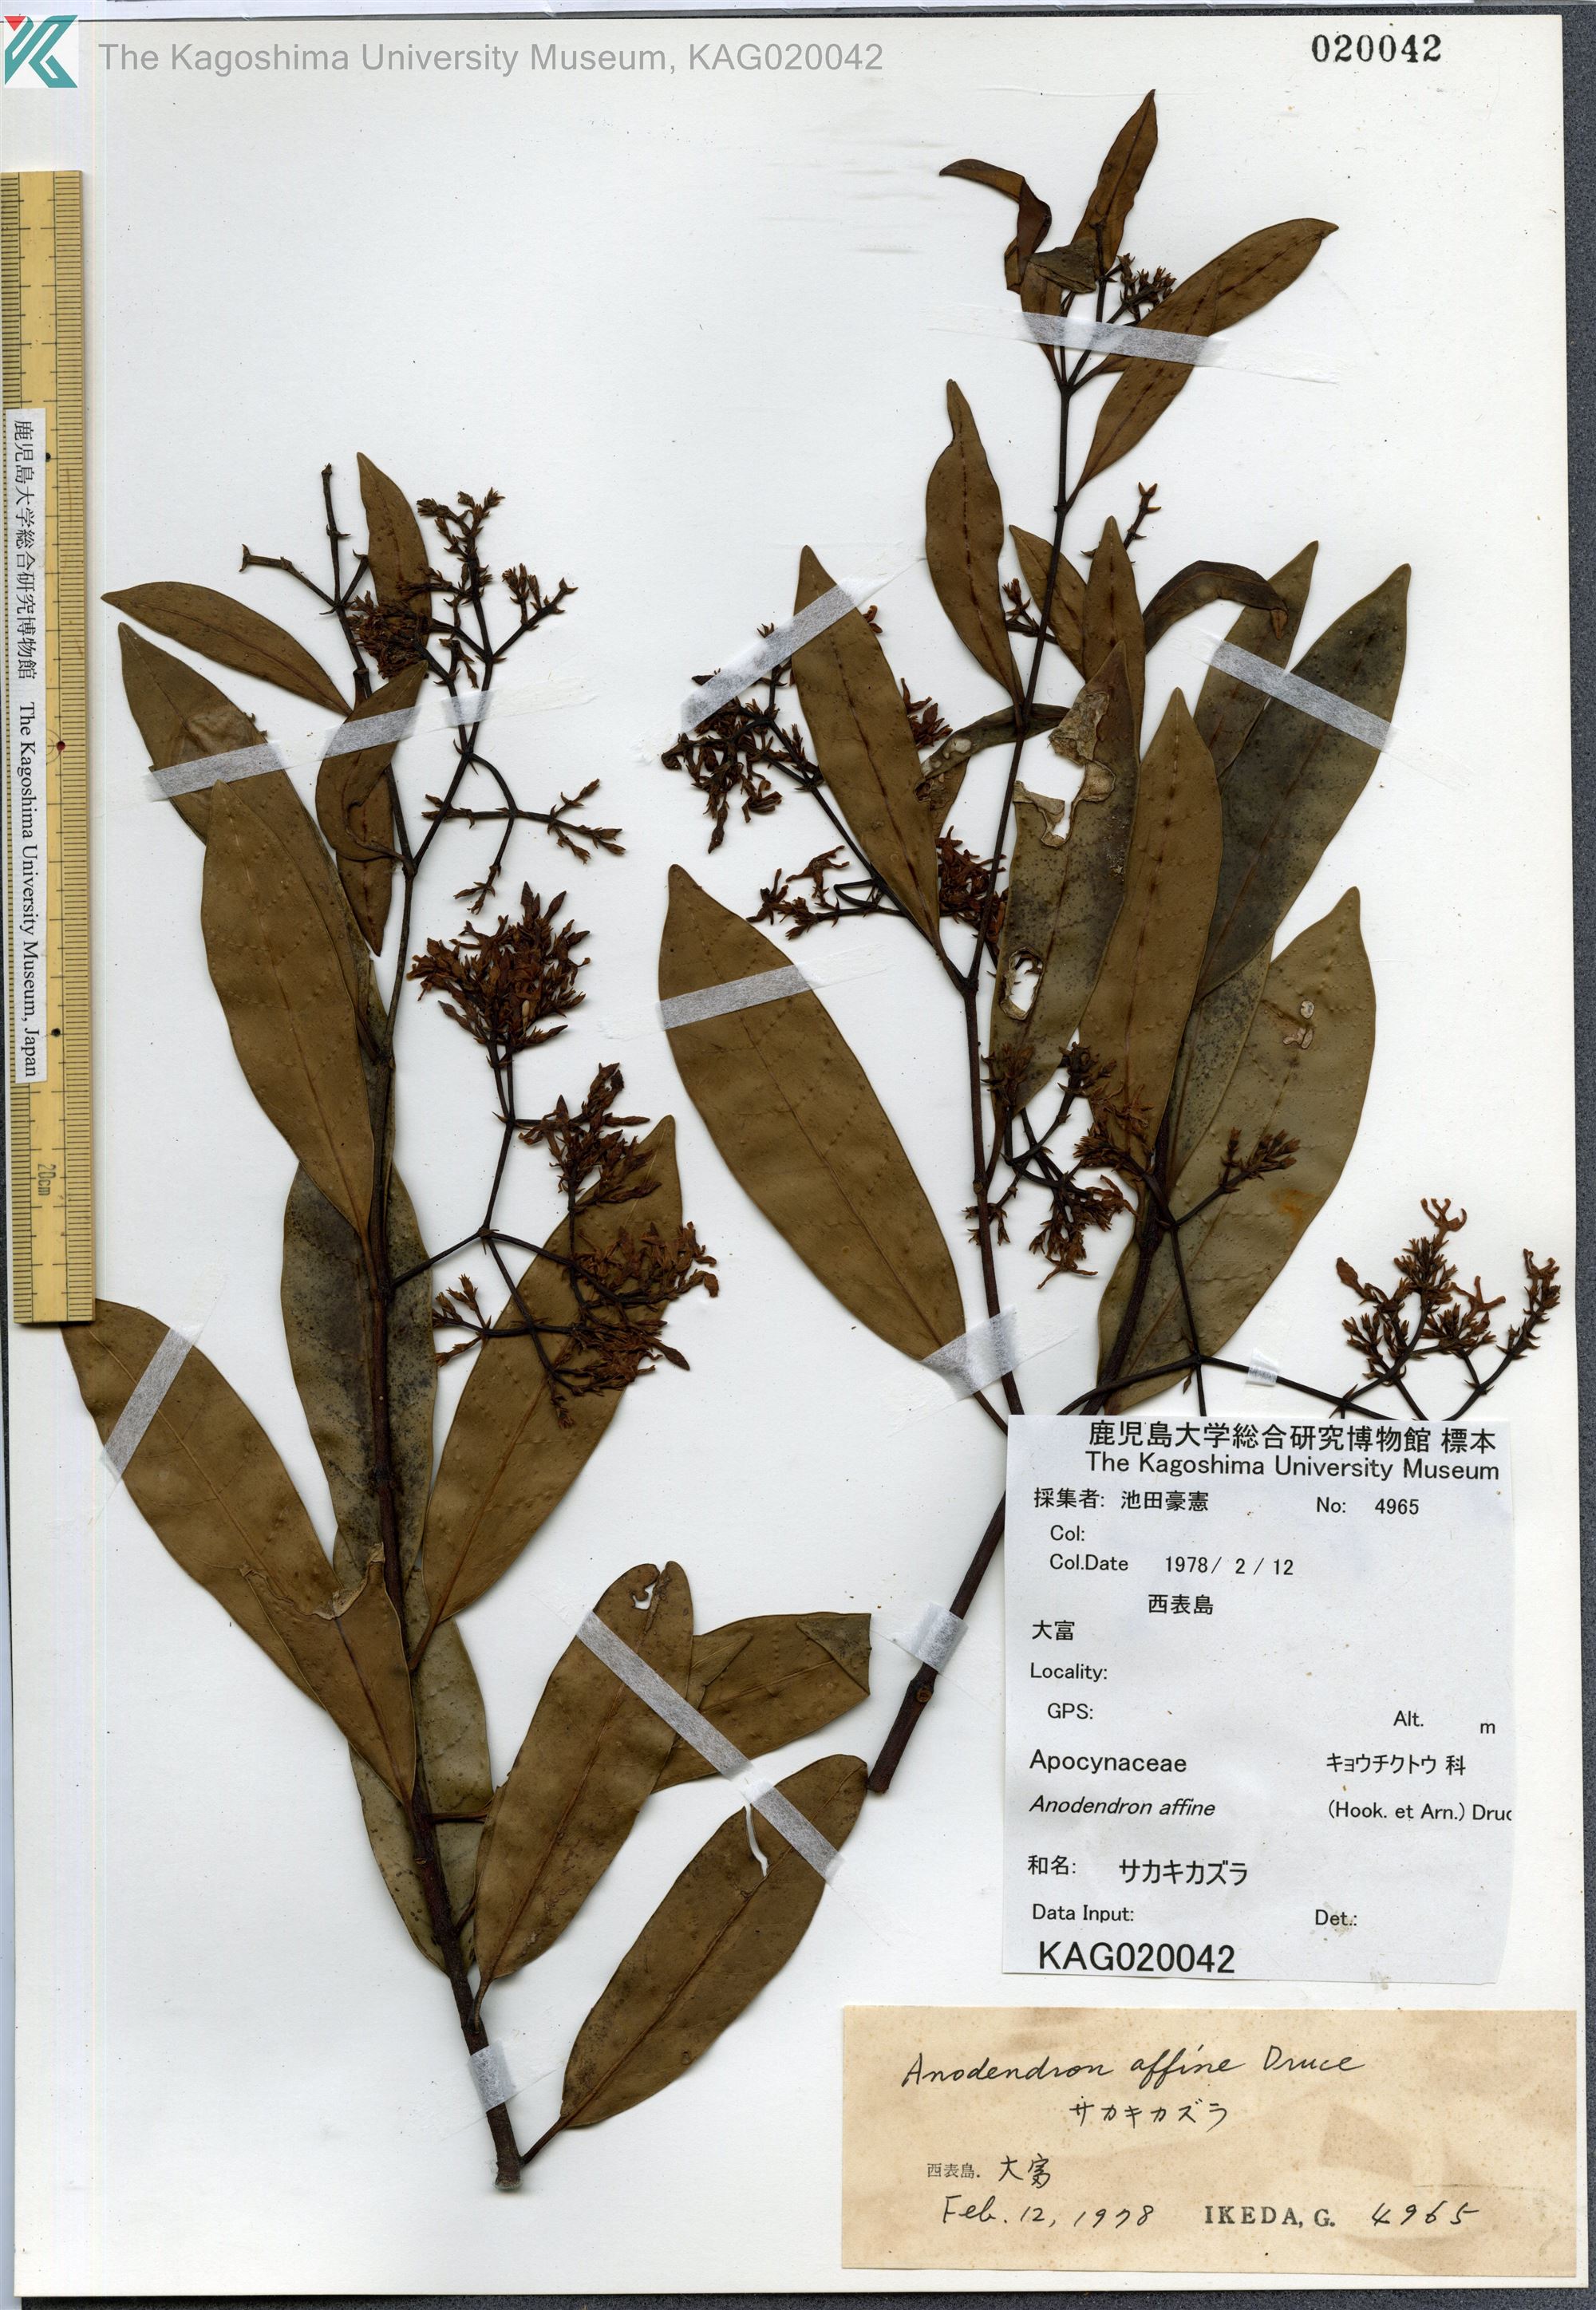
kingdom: Plantae
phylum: Tracheophyta
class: Magnoliopsida
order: Gentianales
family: Apocynaceae
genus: Anodendron
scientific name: Anodendron affine
